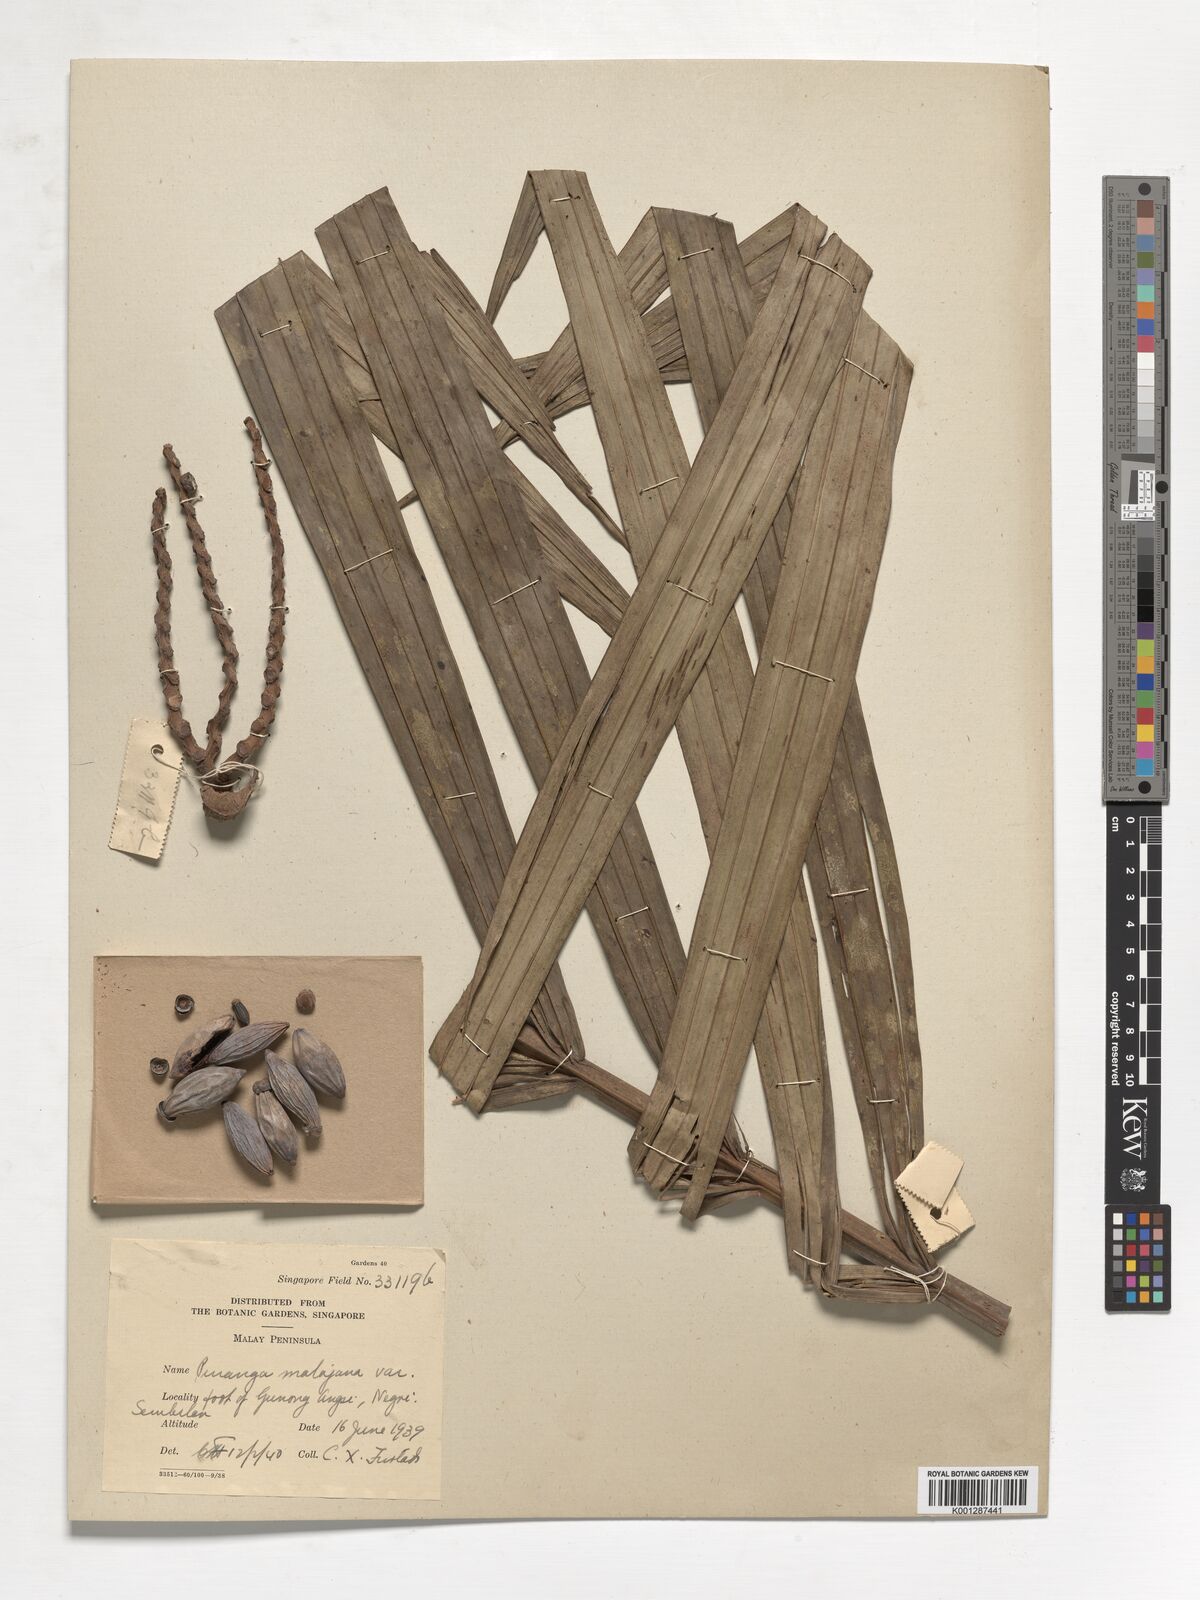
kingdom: Plantae
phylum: Tracheophyta
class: Liliopsida
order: Arecales
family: Arecaceae
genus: Pinanga
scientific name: Pinanga malaiana
